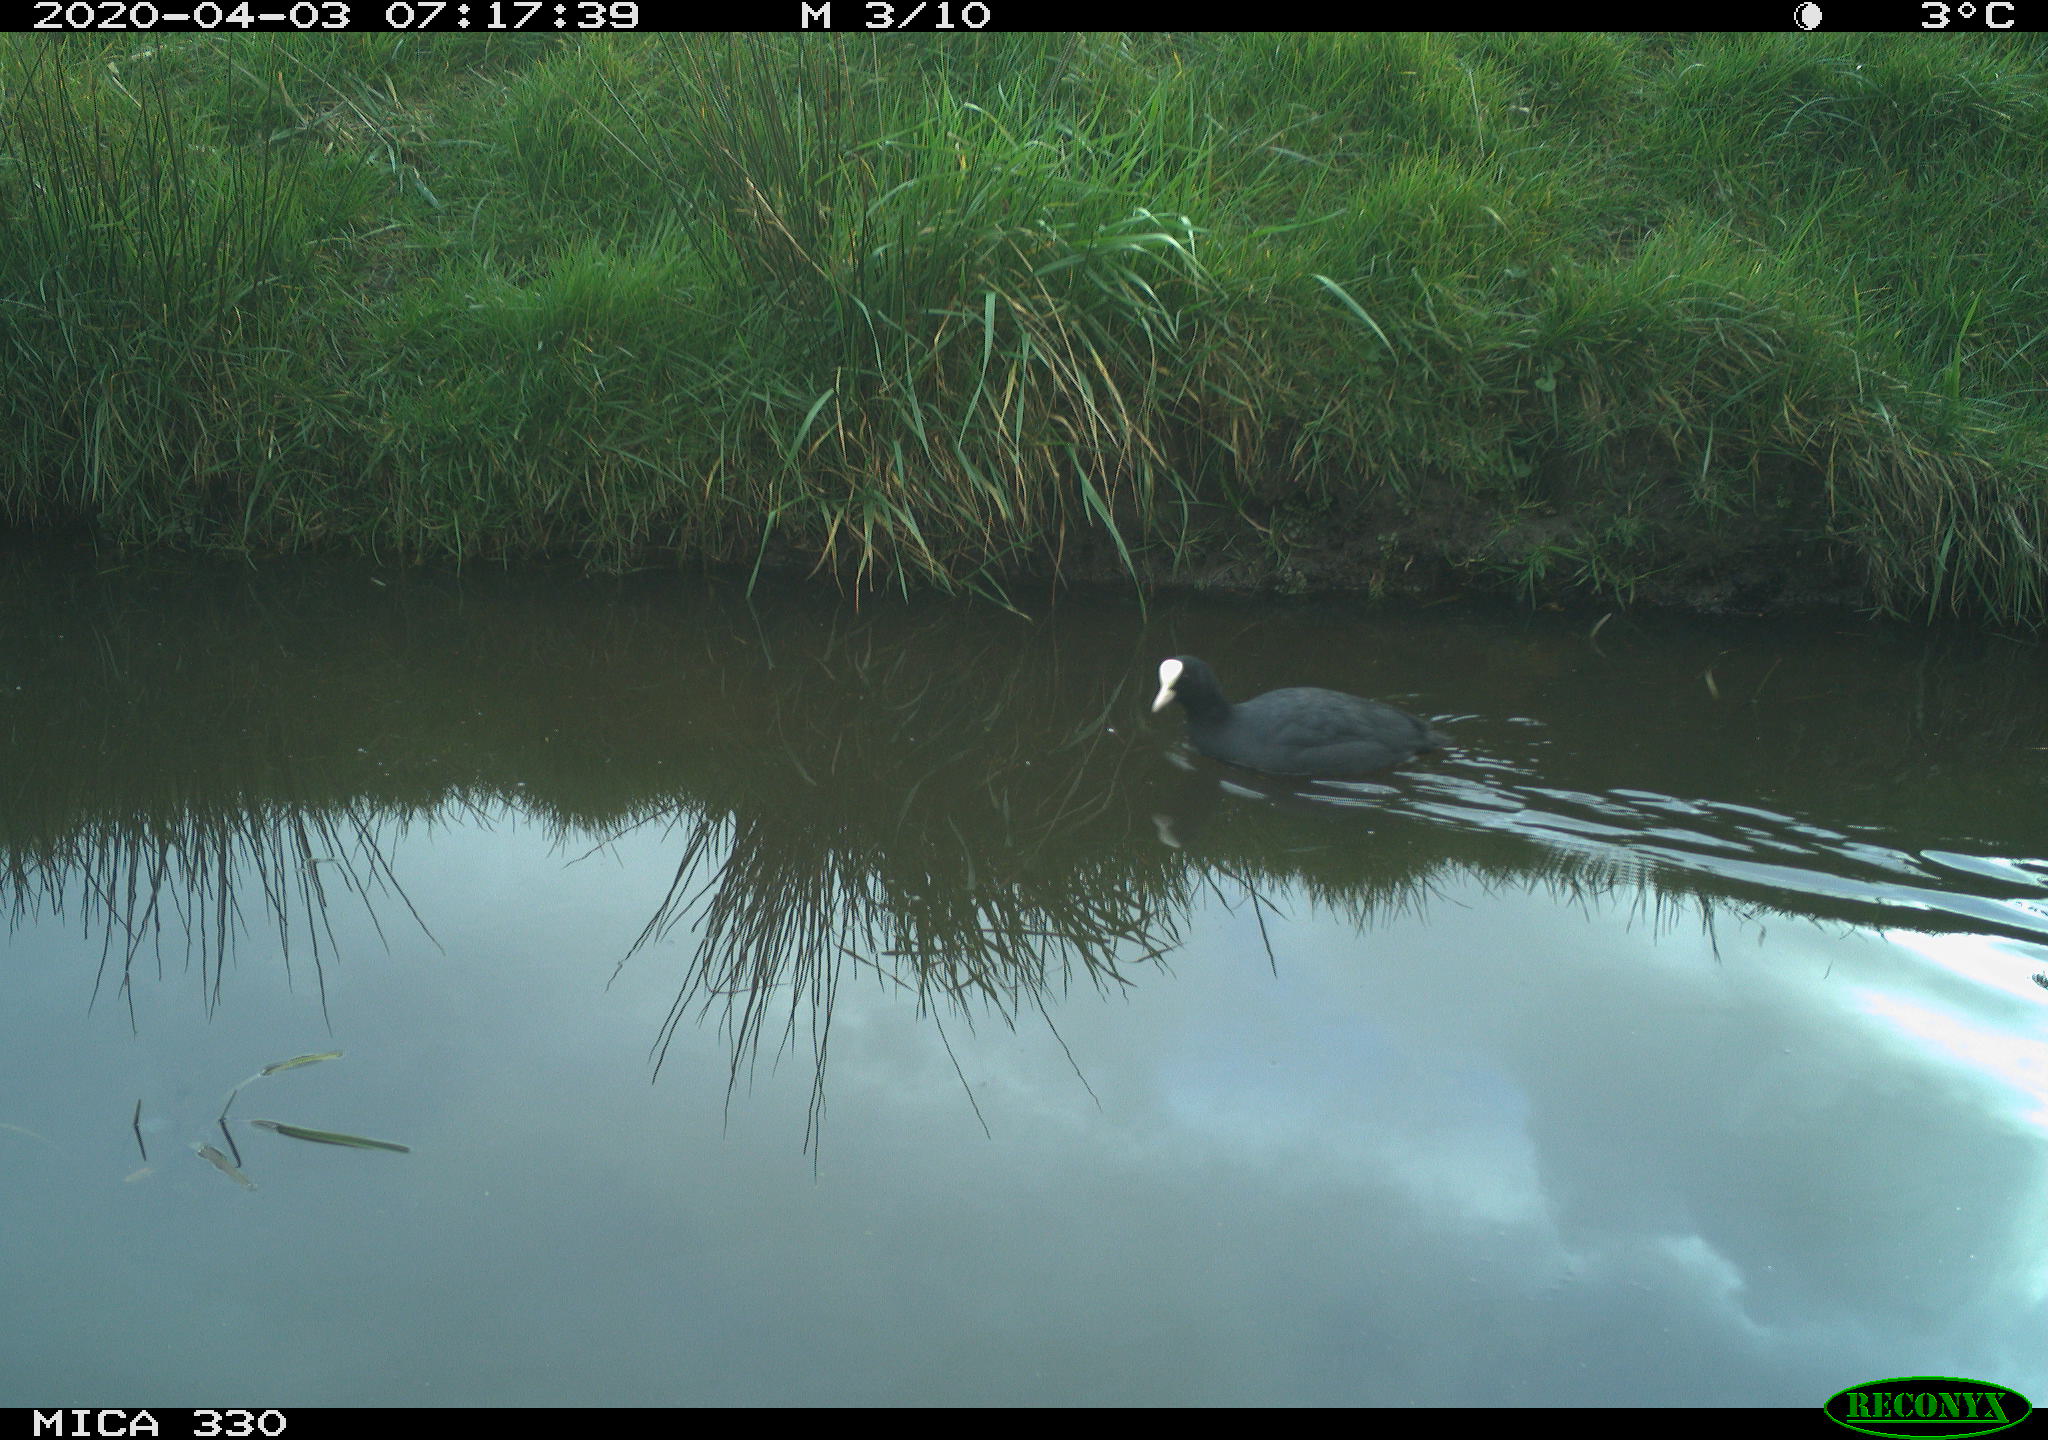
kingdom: Animalia
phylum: Chordata
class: Aves
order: Gruiformes
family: Rallidae
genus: Fulica
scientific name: Fulica atra
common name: Eurasian coot
